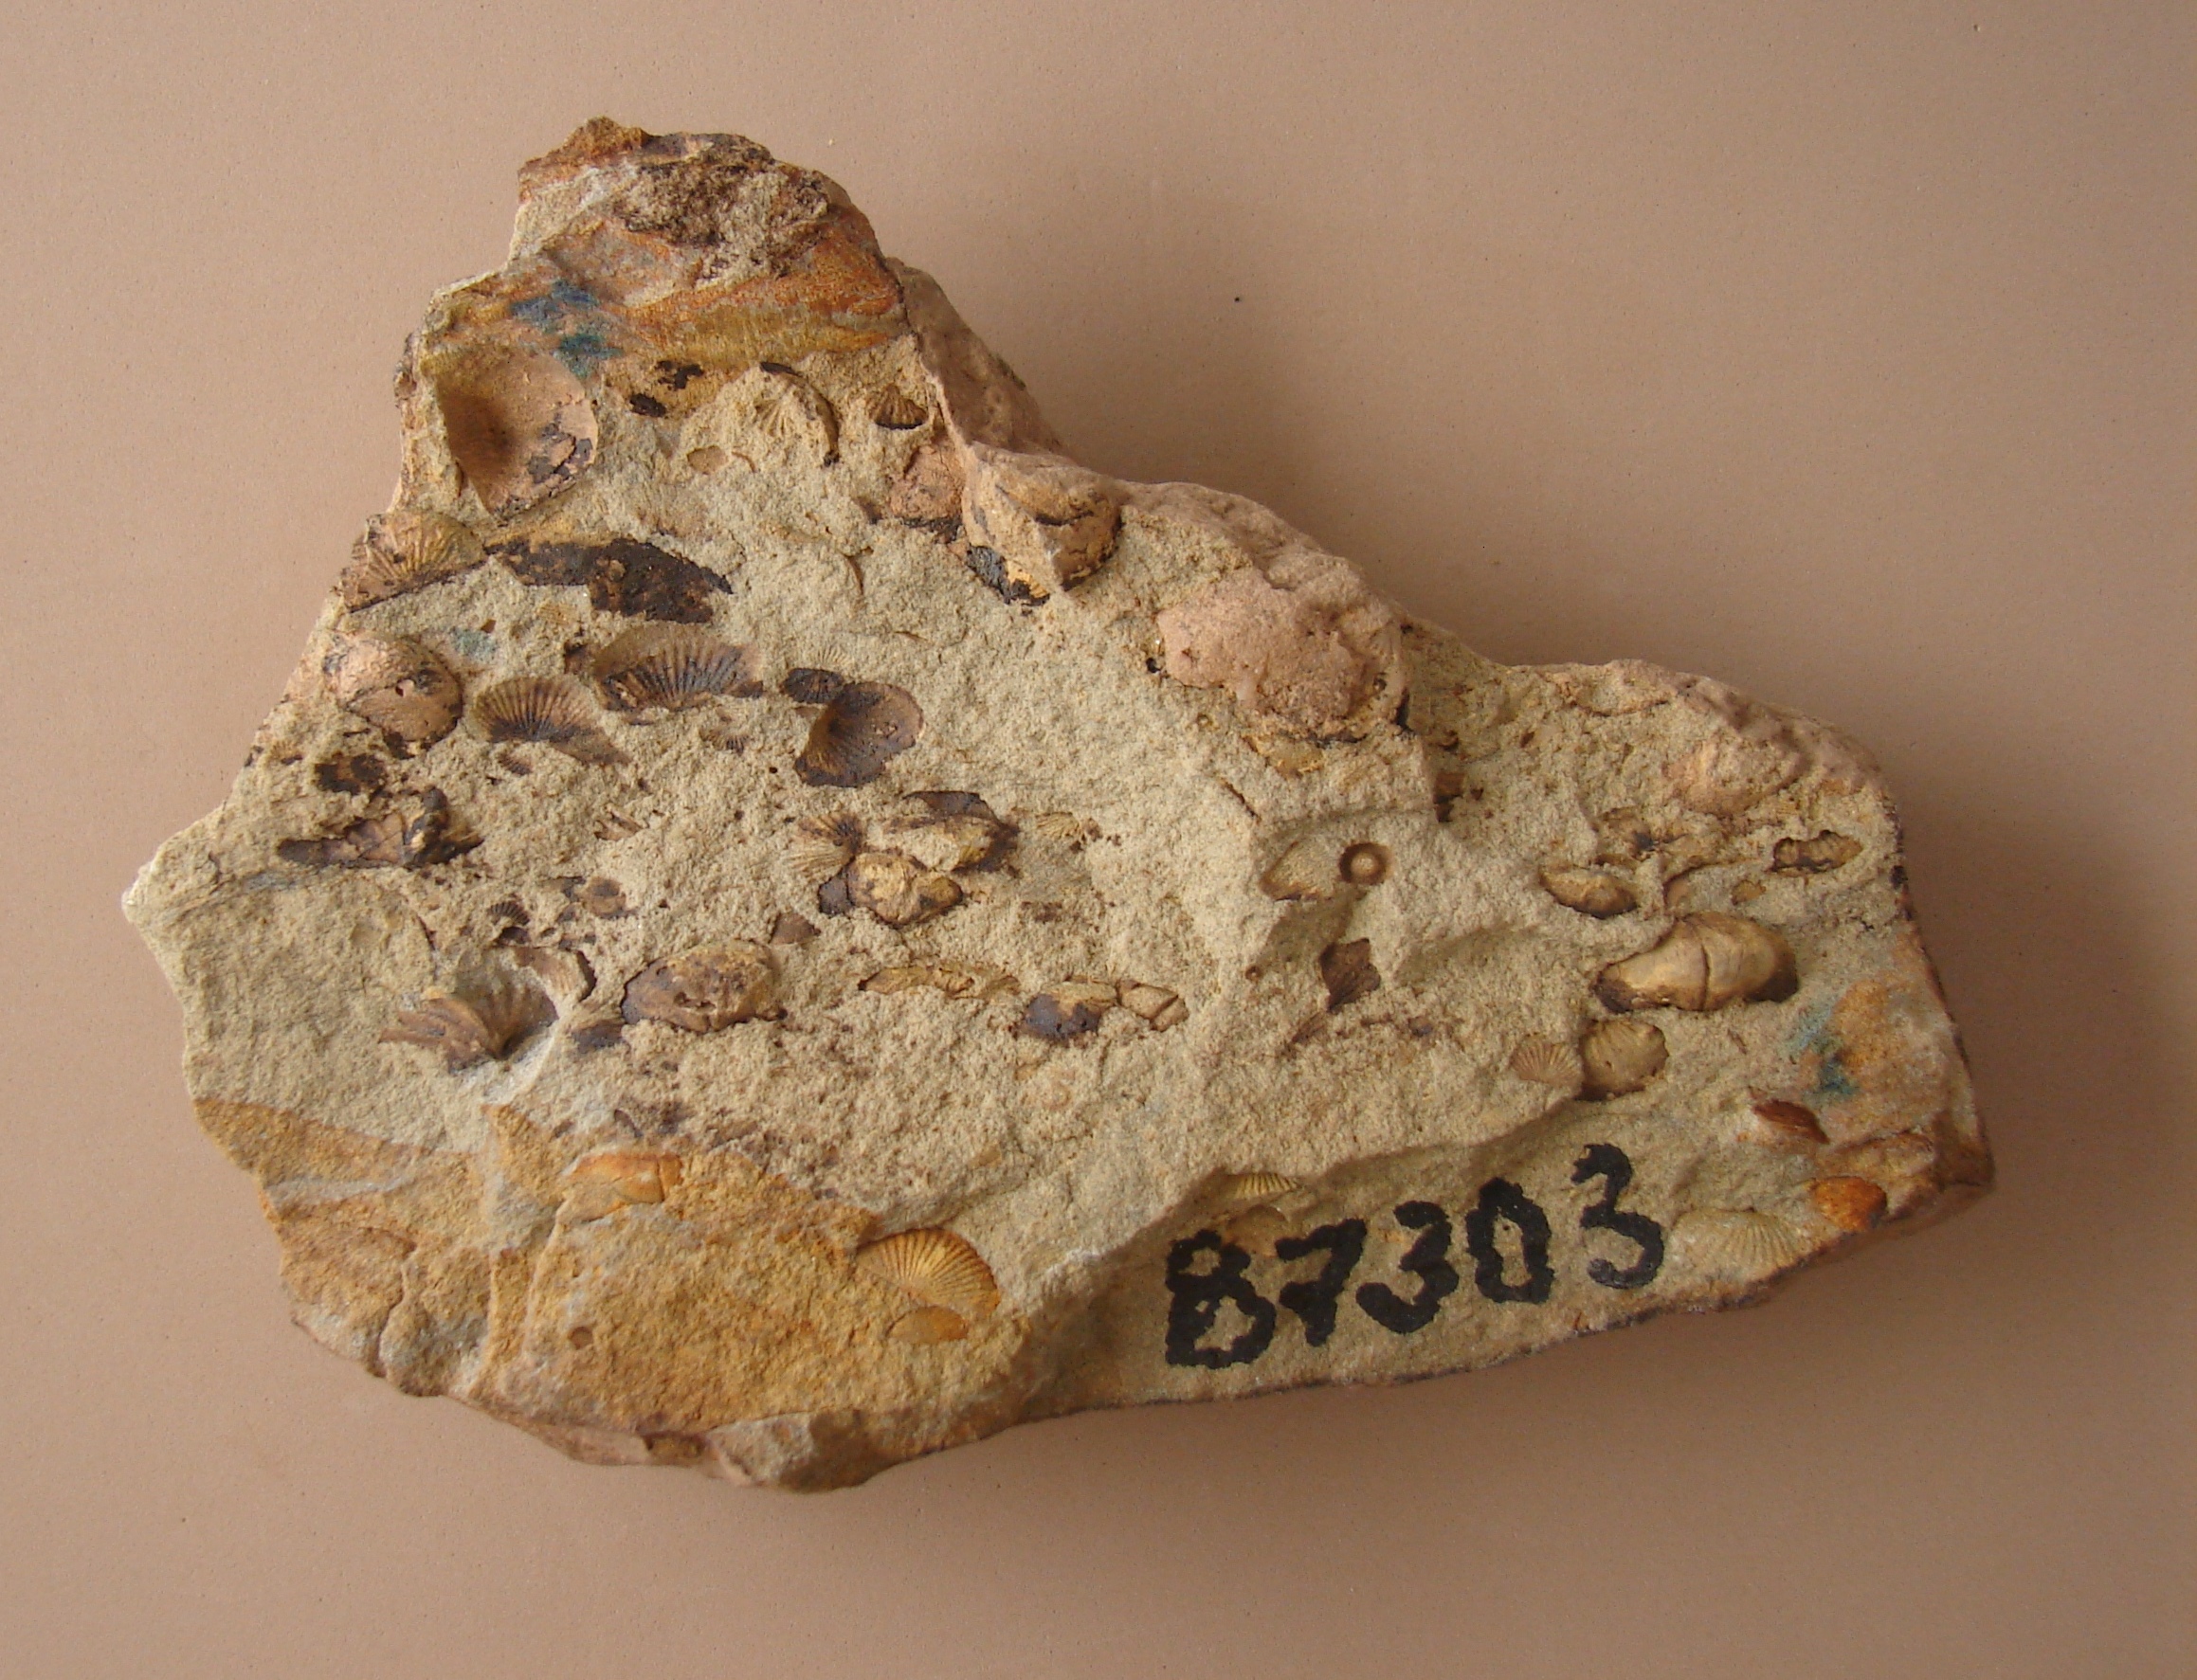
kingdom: Animalia
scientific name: Animalia
